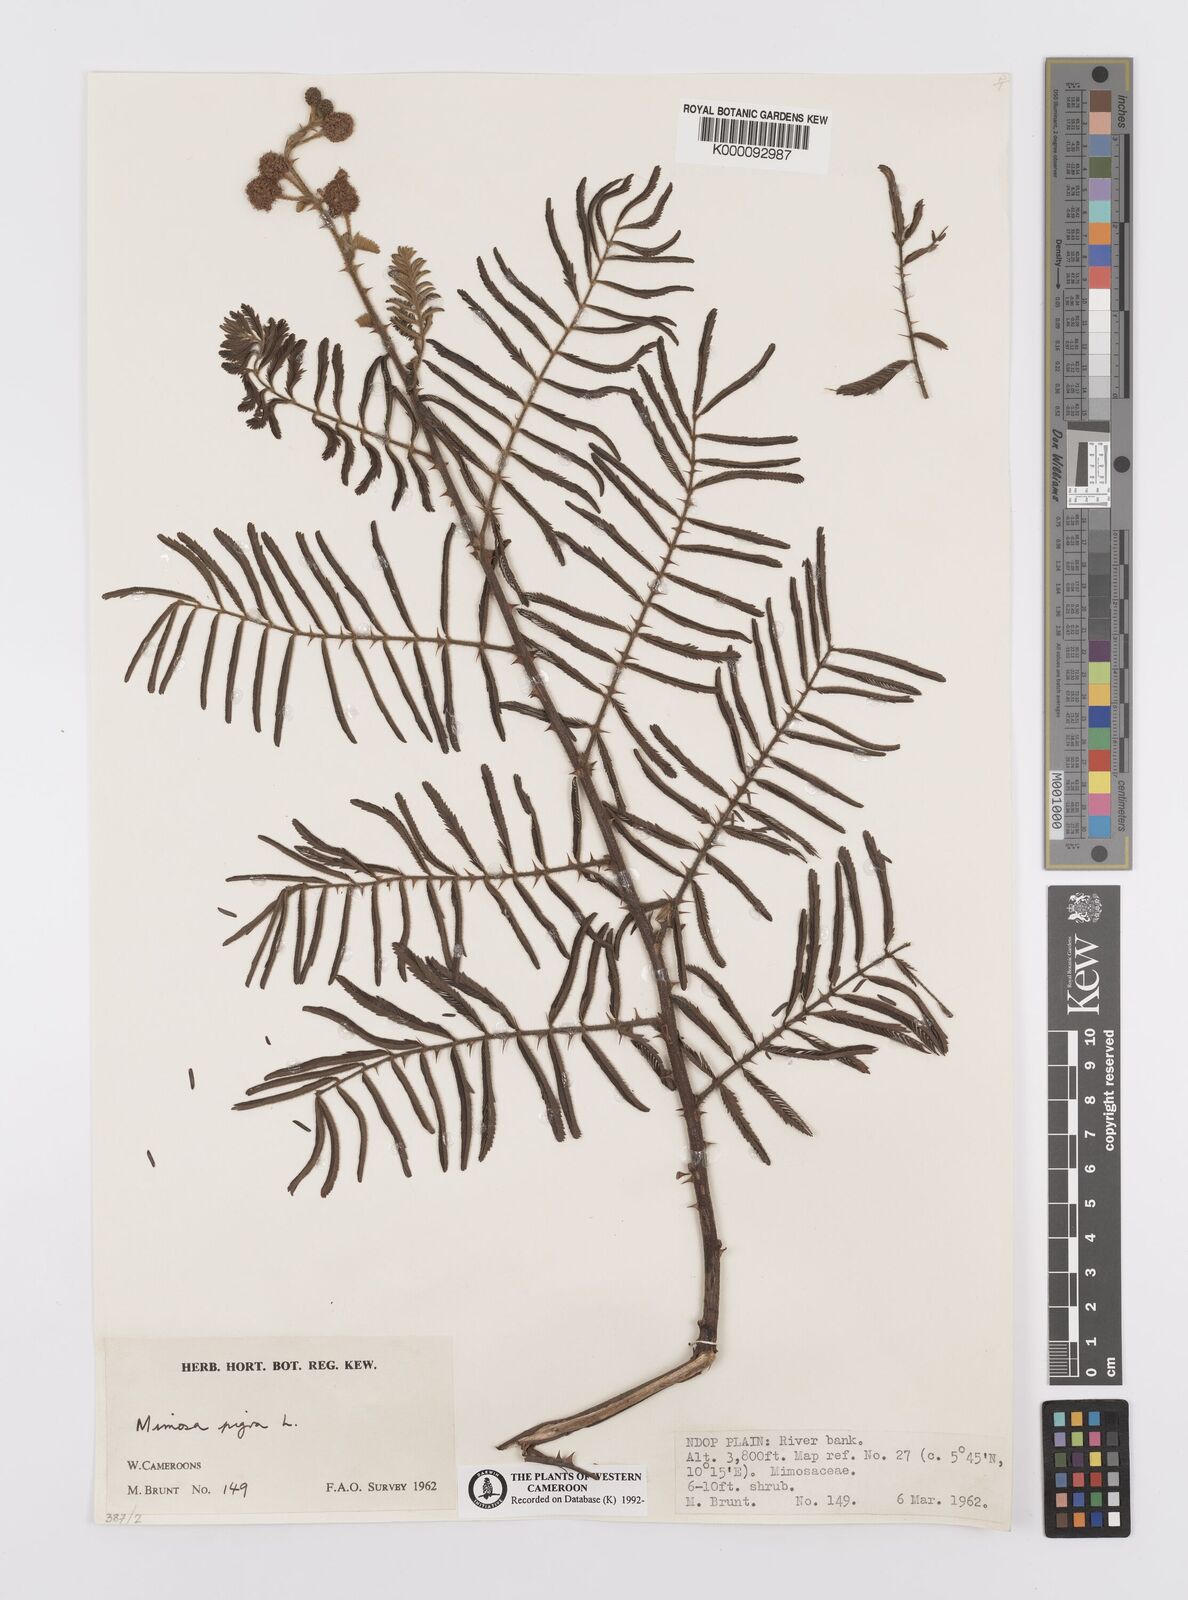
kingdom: Plantae
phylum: Tracheophyta
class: Magnoliopsida
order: Fabales
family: Fabaceae
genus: Mimosa
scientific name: Mimosa pigra
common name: Black mimosa
